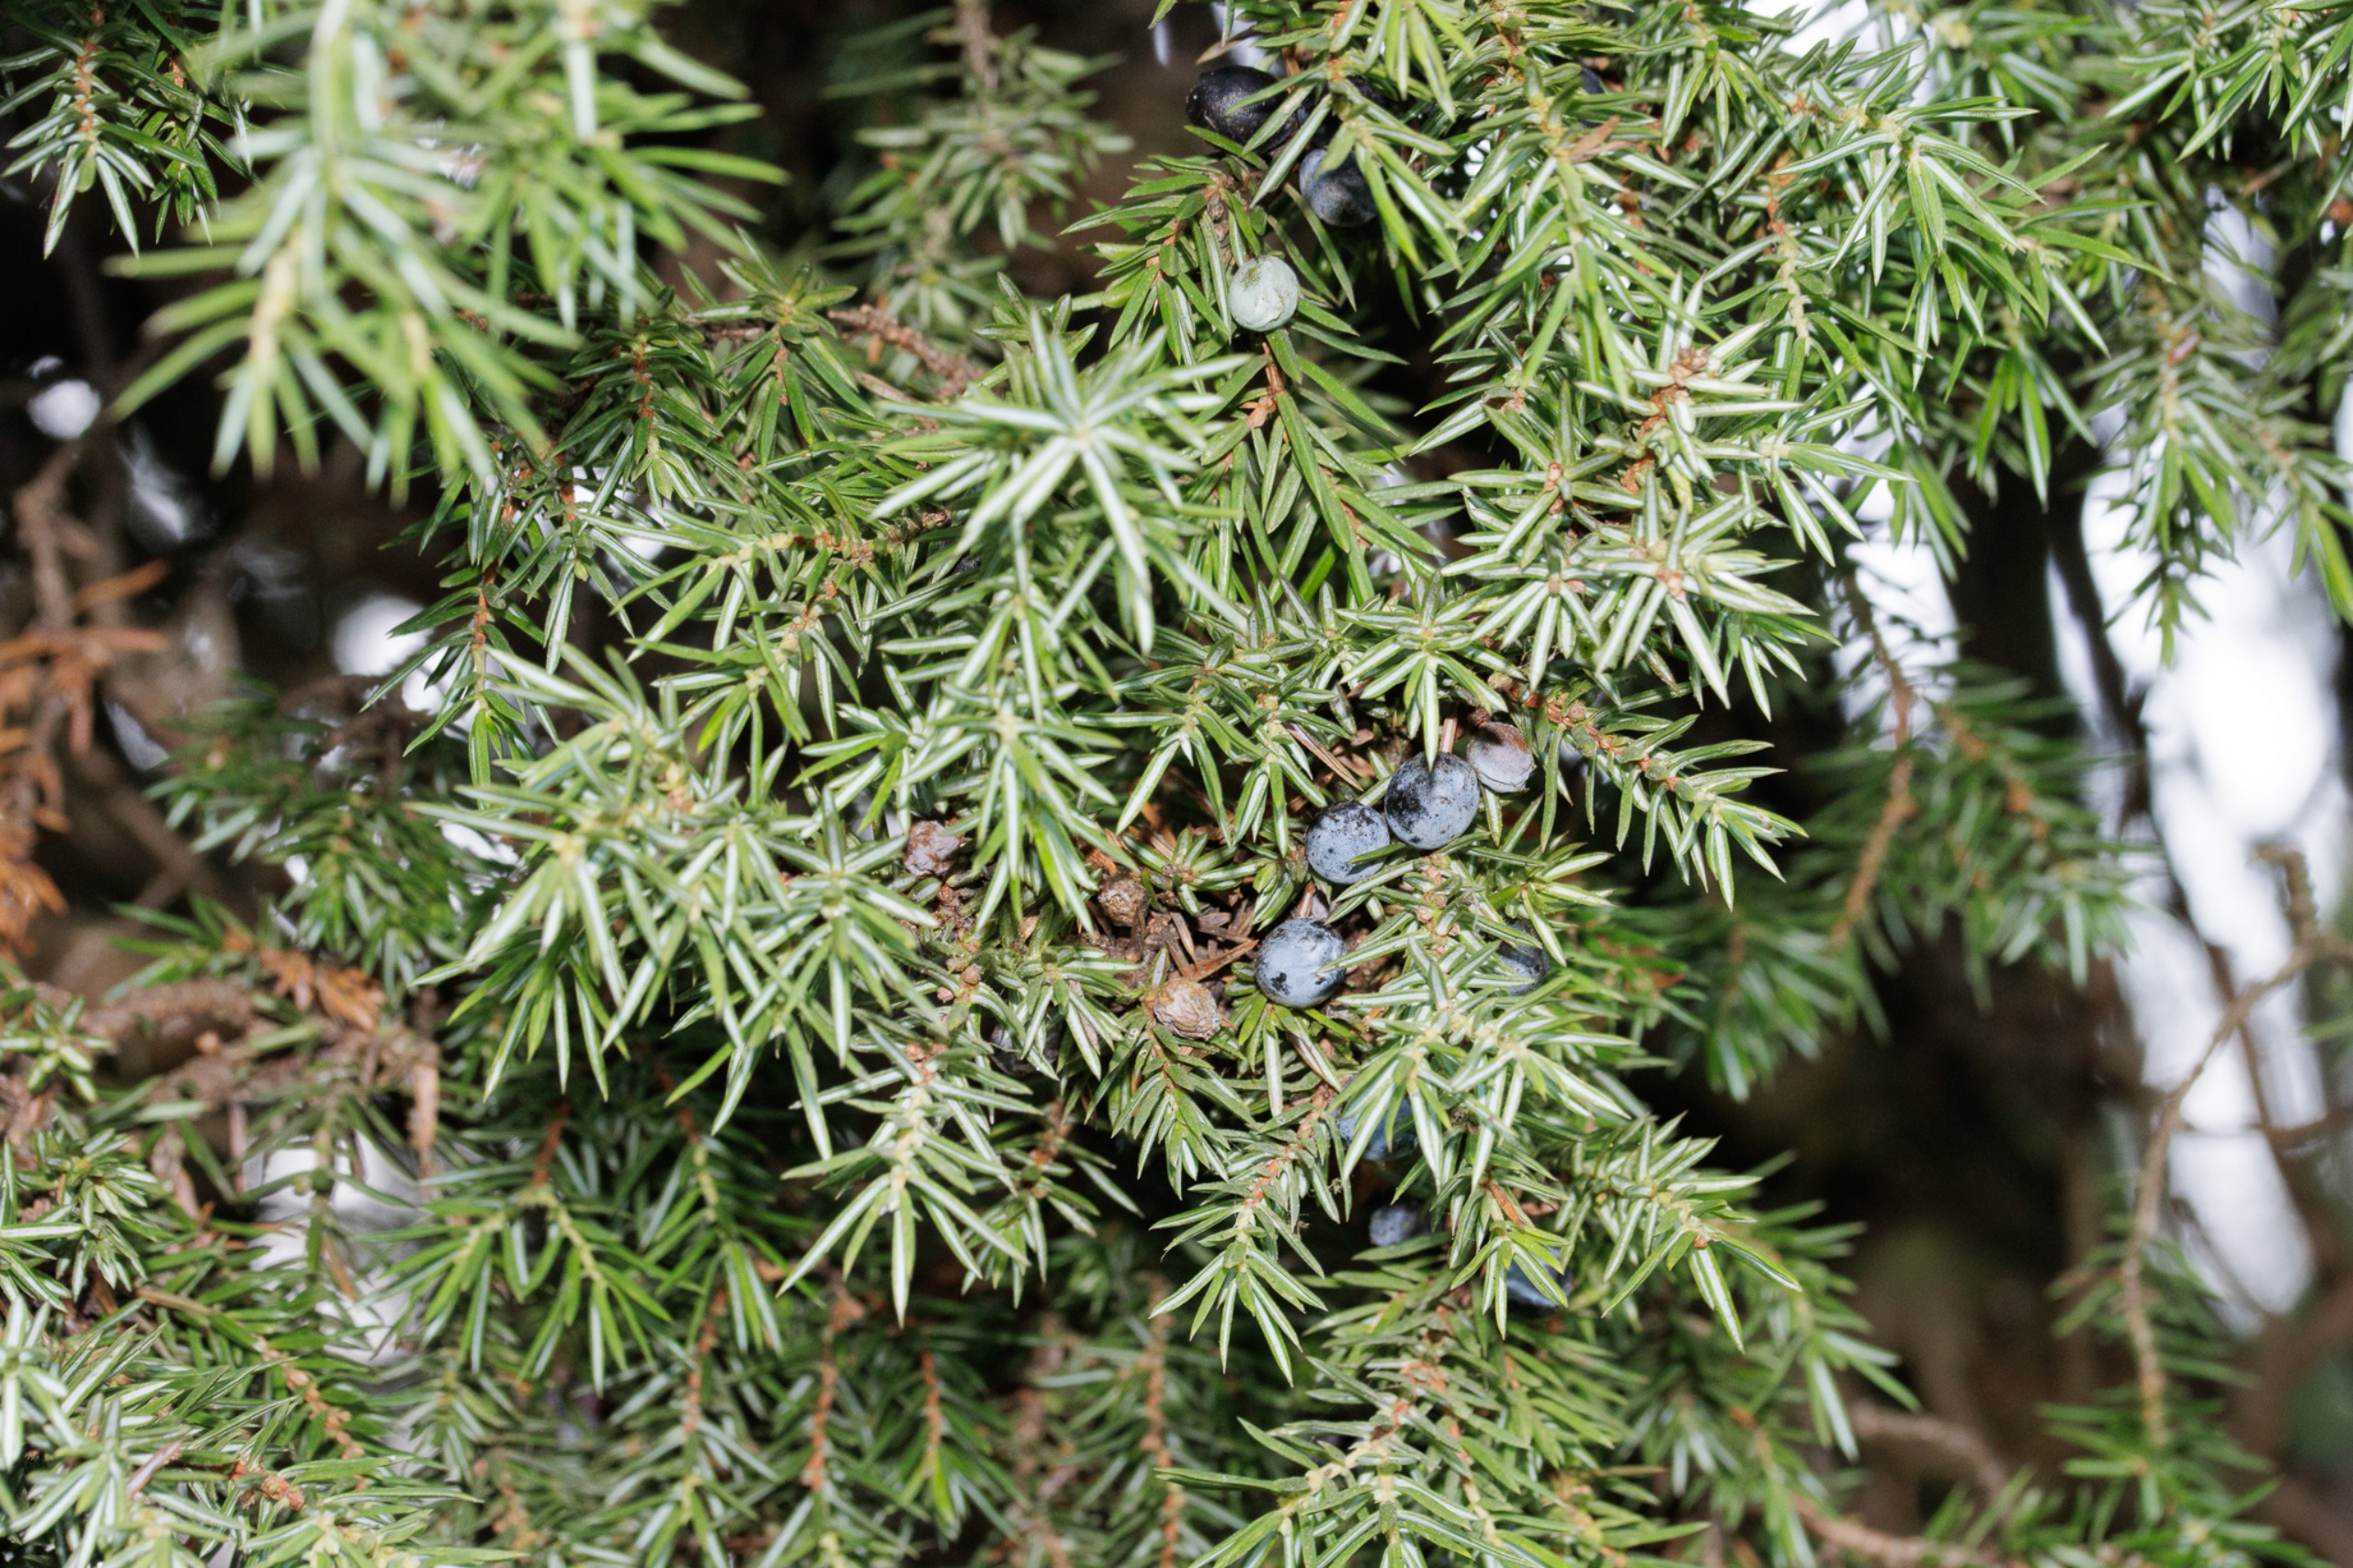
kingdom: Plantae
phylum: Tracheophyta
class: Pinopsida
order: Pinales
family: Cupressaceae
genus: Juniperus
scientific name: Juniperus communis
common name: Almindelig ene
